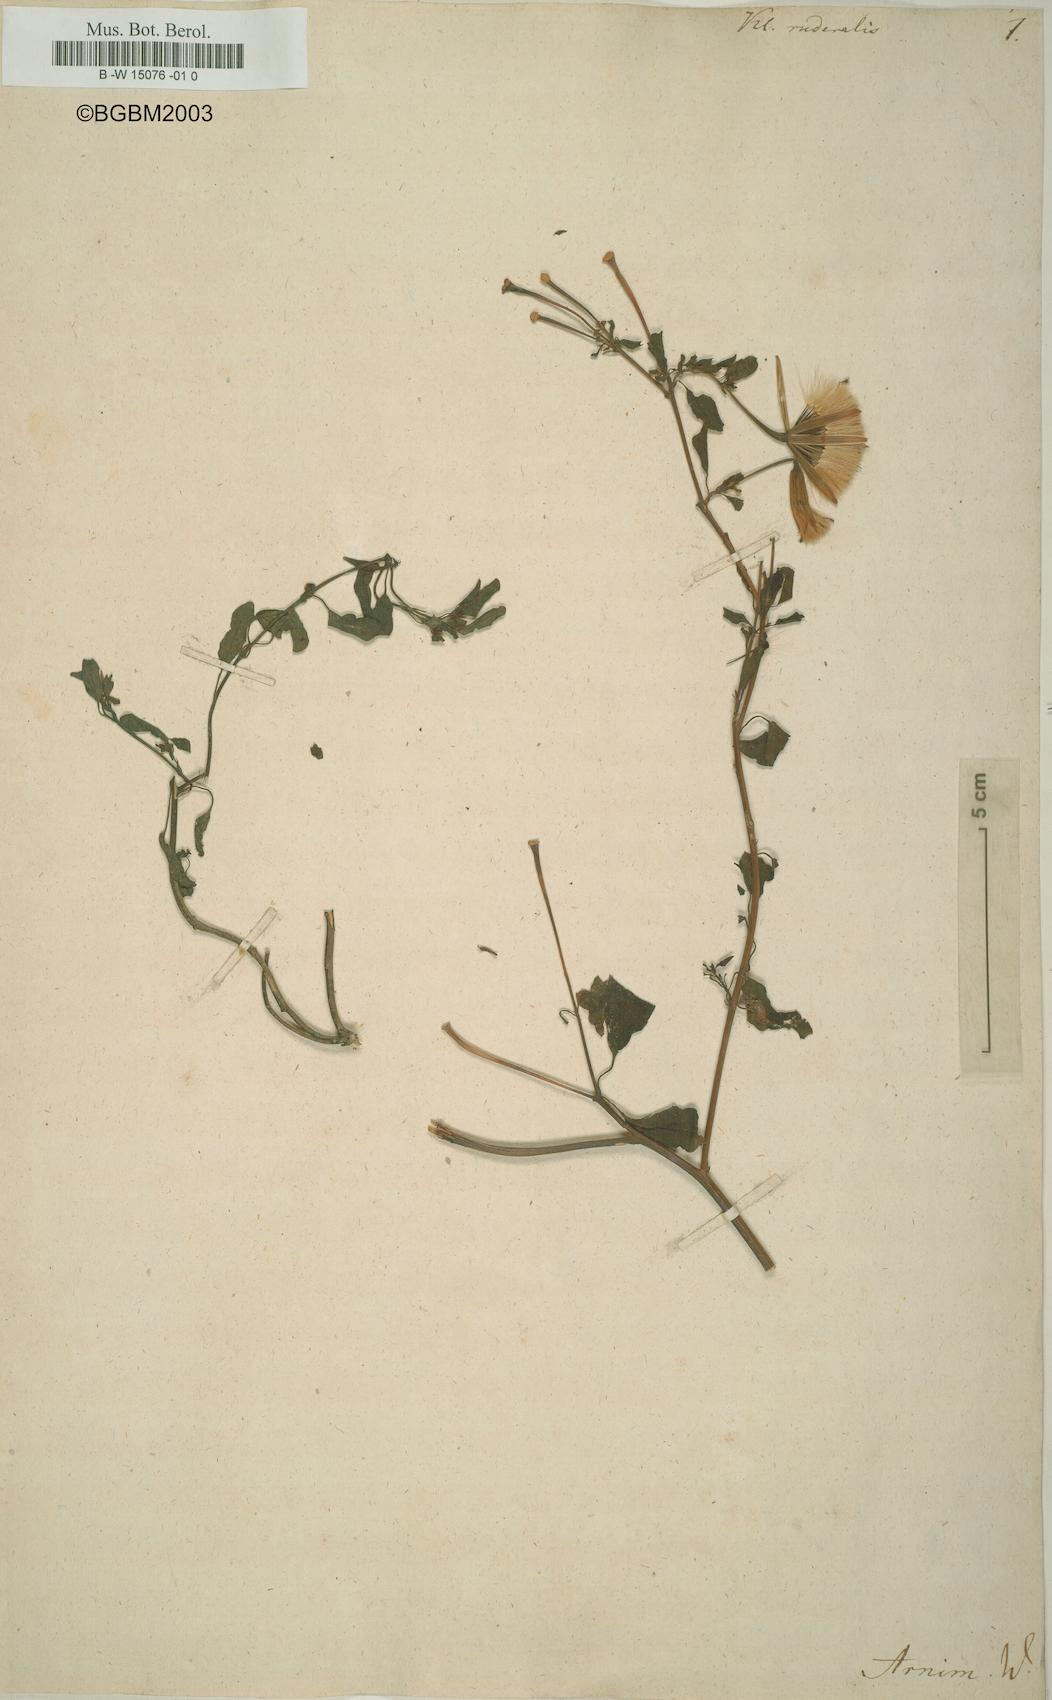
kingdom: Plantae
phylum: Tracheophyta
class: Magnoliopsida
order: Asterales
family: Asteraceae
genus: Porophyllum
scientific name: Porophyllum ruderale
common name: Yerba porosa
